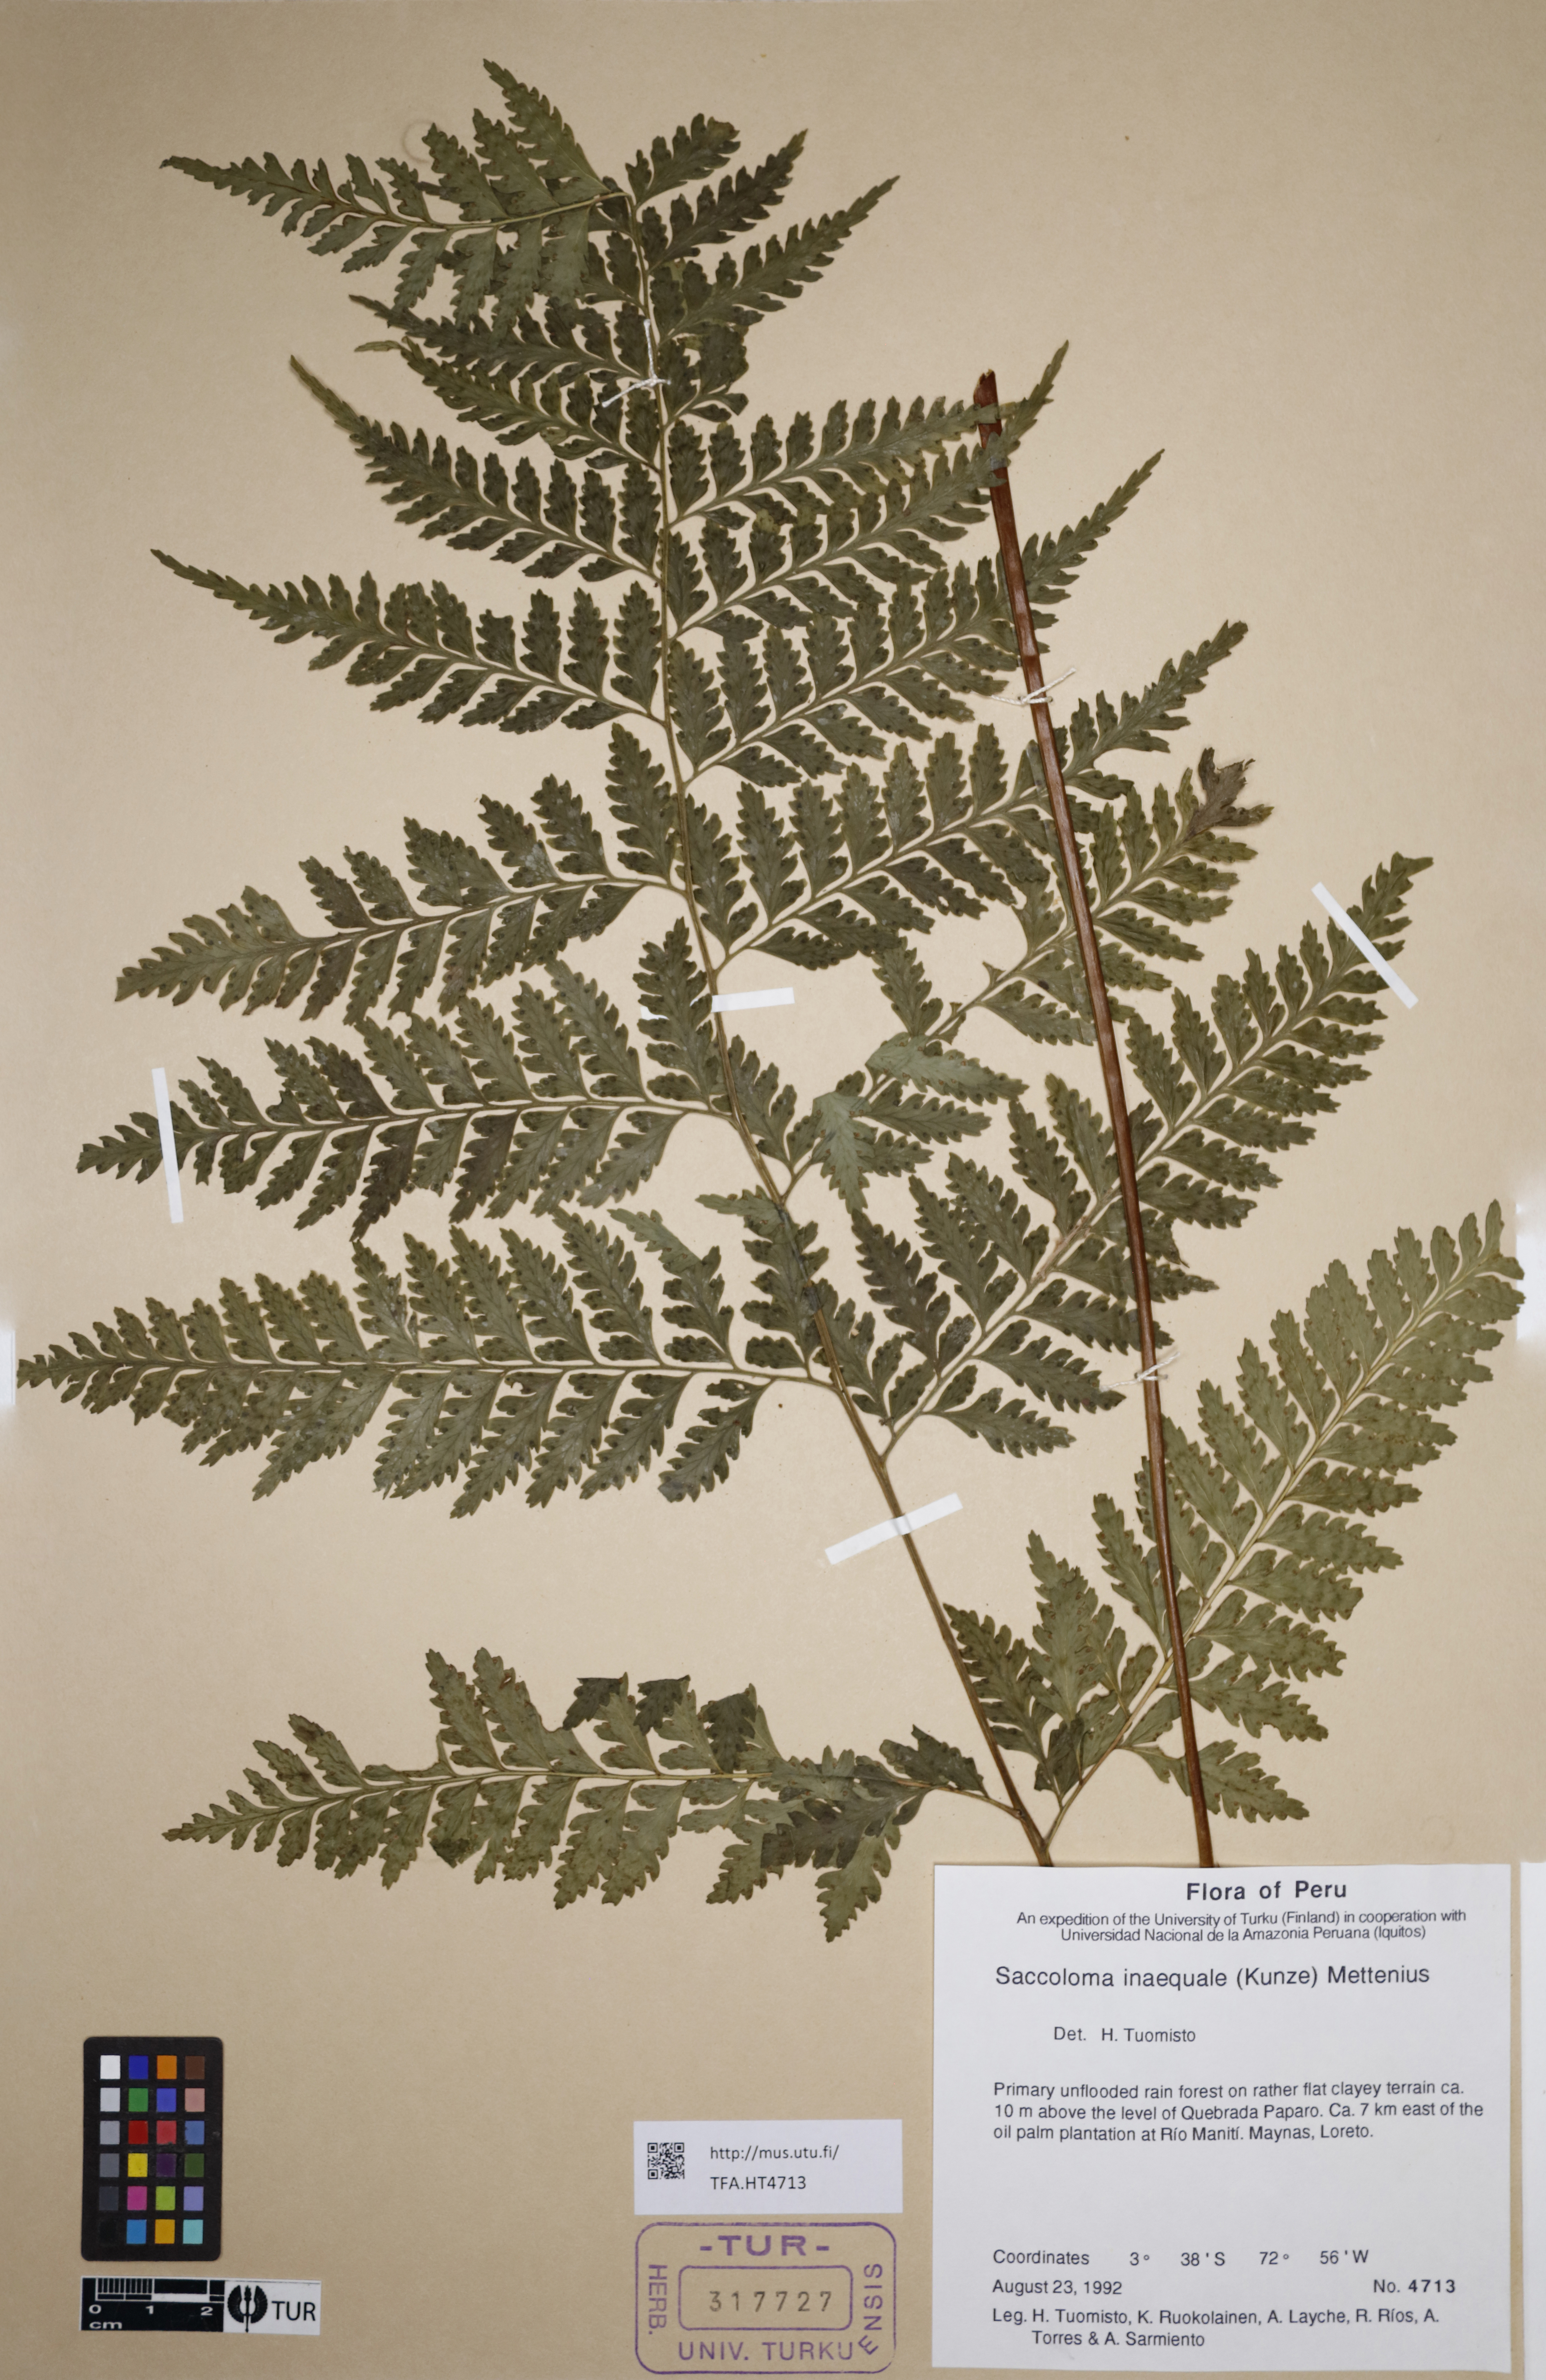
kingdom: Plantae
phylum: Tracheophyta
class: Polypodiopsida
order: Polypodiales
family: Saccolomataceae
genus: Saccoloma
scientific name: Saccoloma inaequale
